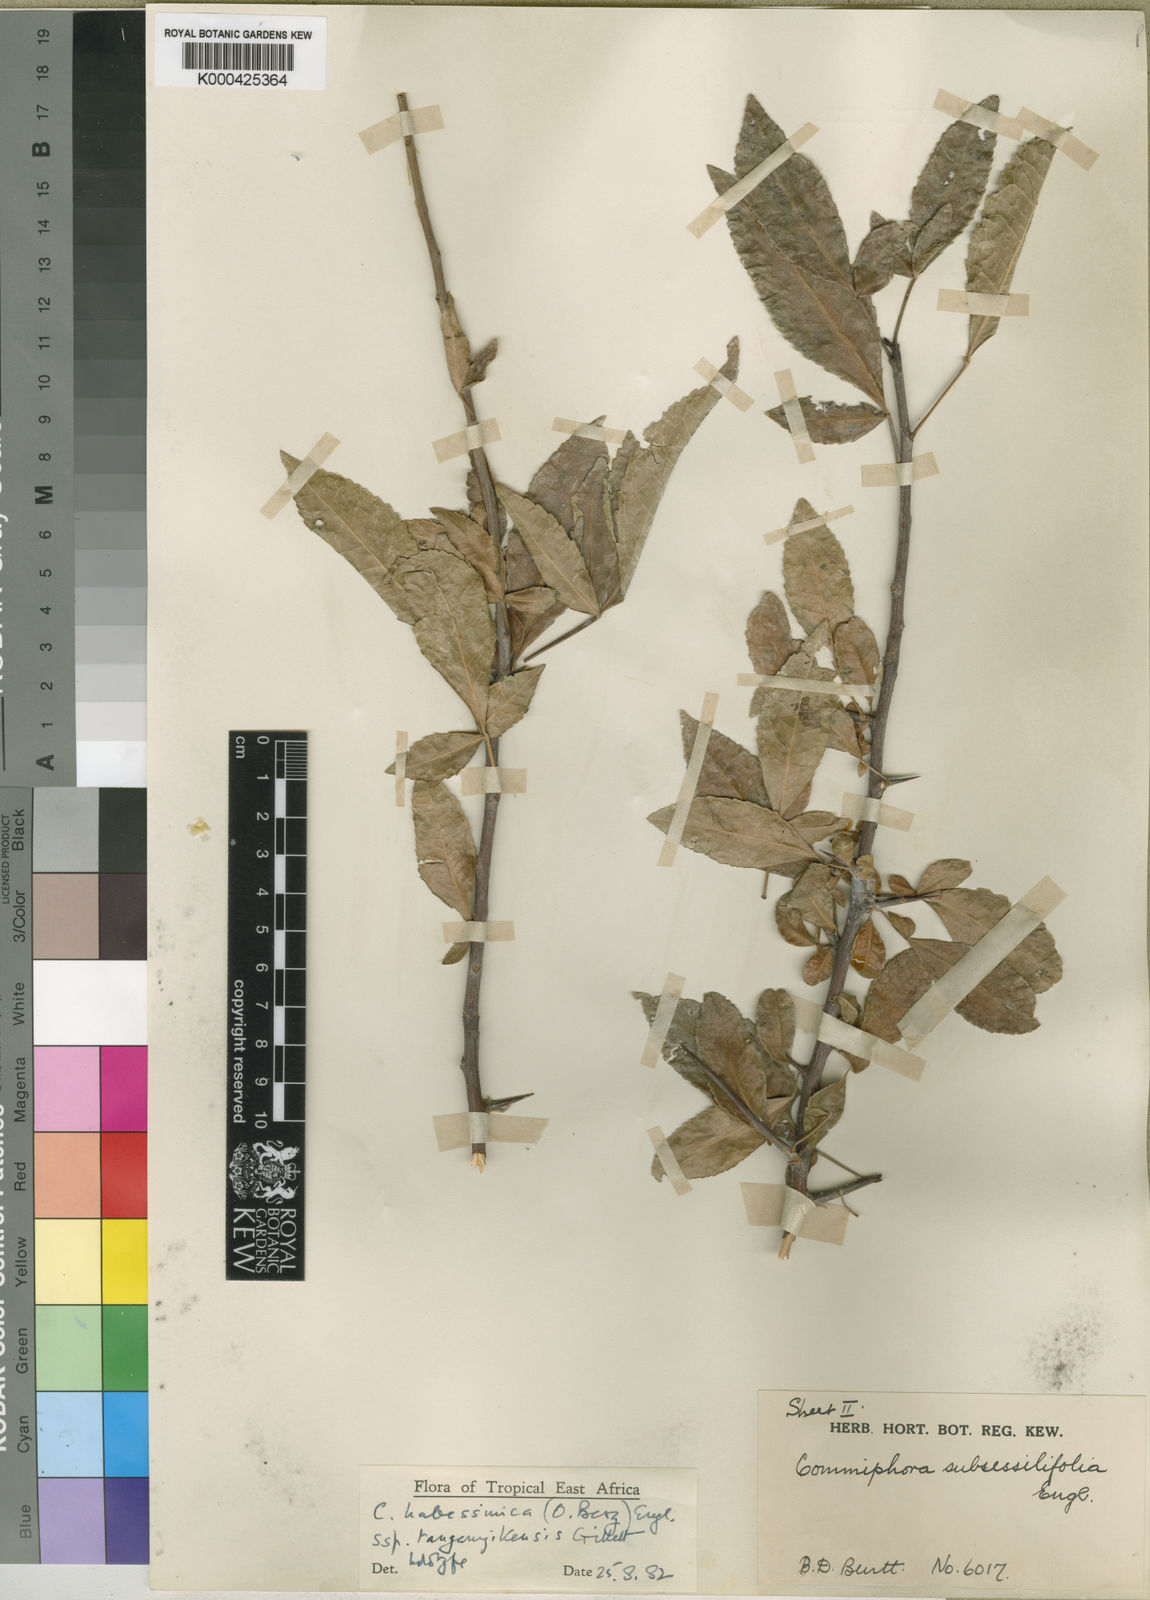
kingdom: Plantae
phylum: Tracheophyta
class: Magnoliopsida
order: Sapindales
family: Burseraceae
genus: Commiphora
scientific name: Commiphora kua
